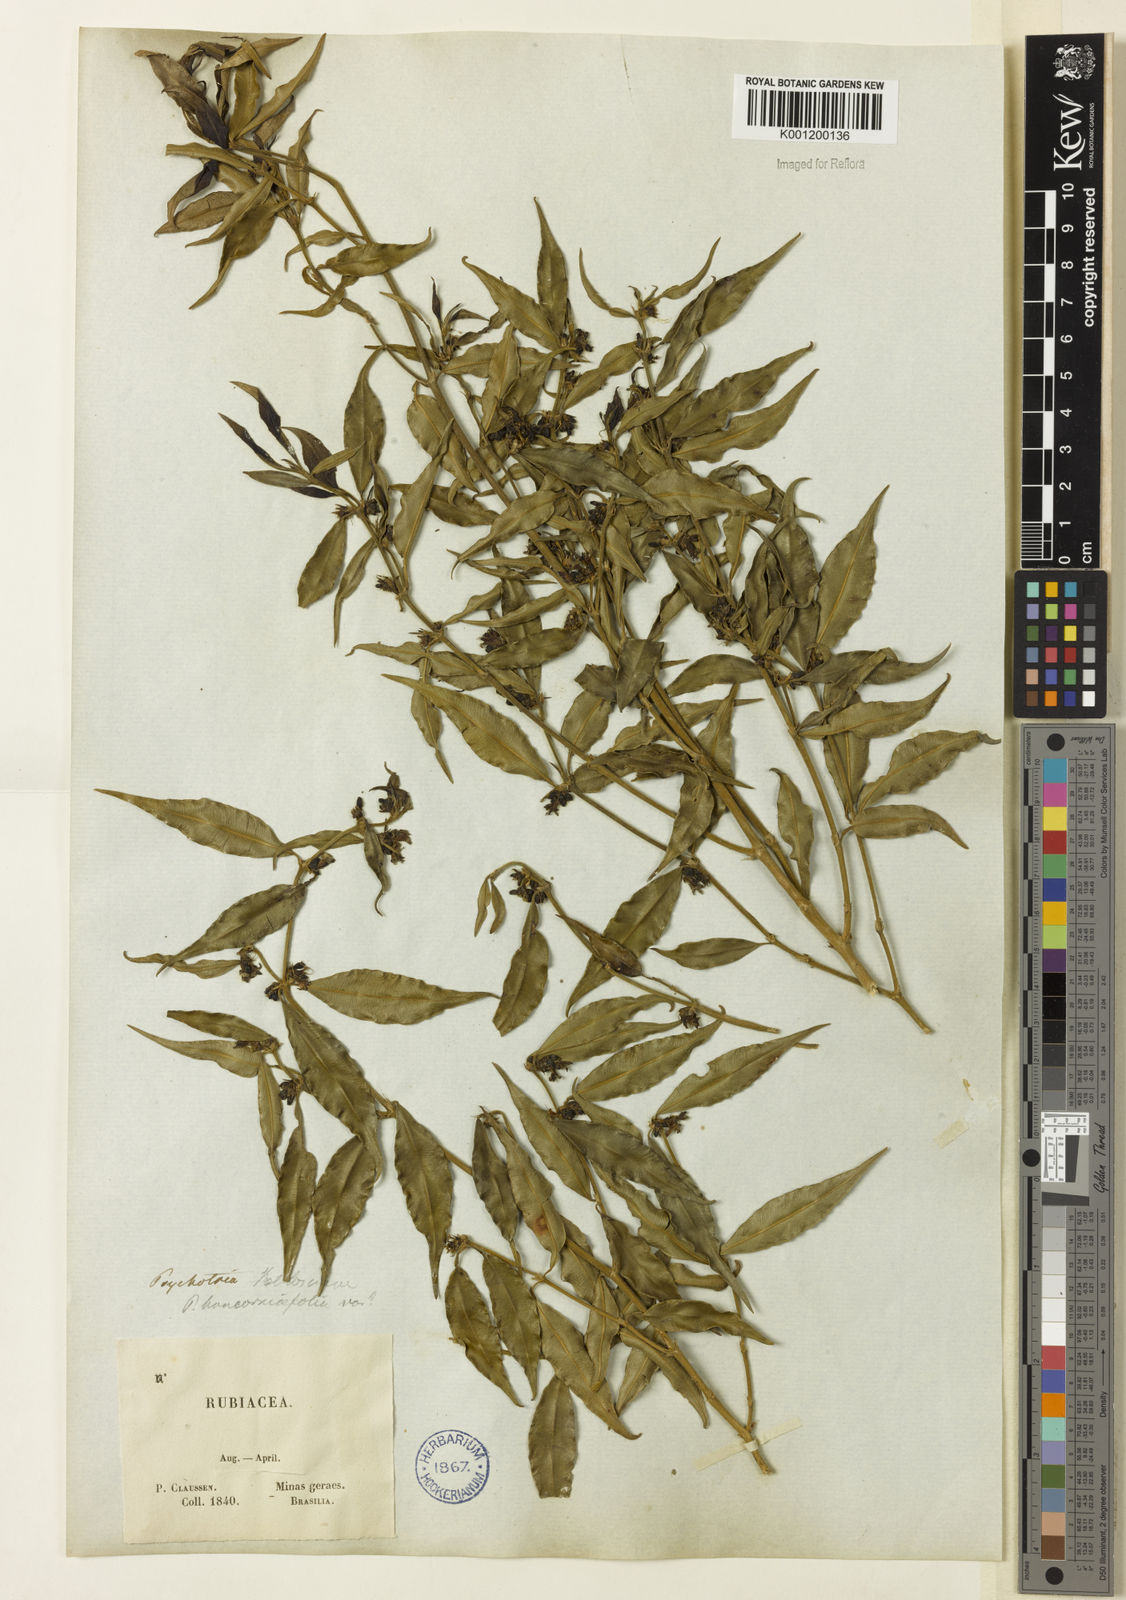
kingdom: Plantae
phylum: Tracheophyta
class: Magnoliopsida
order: Gentianales
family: Rubiaceae
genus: Rudgea
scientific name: Rudgea sessilis
